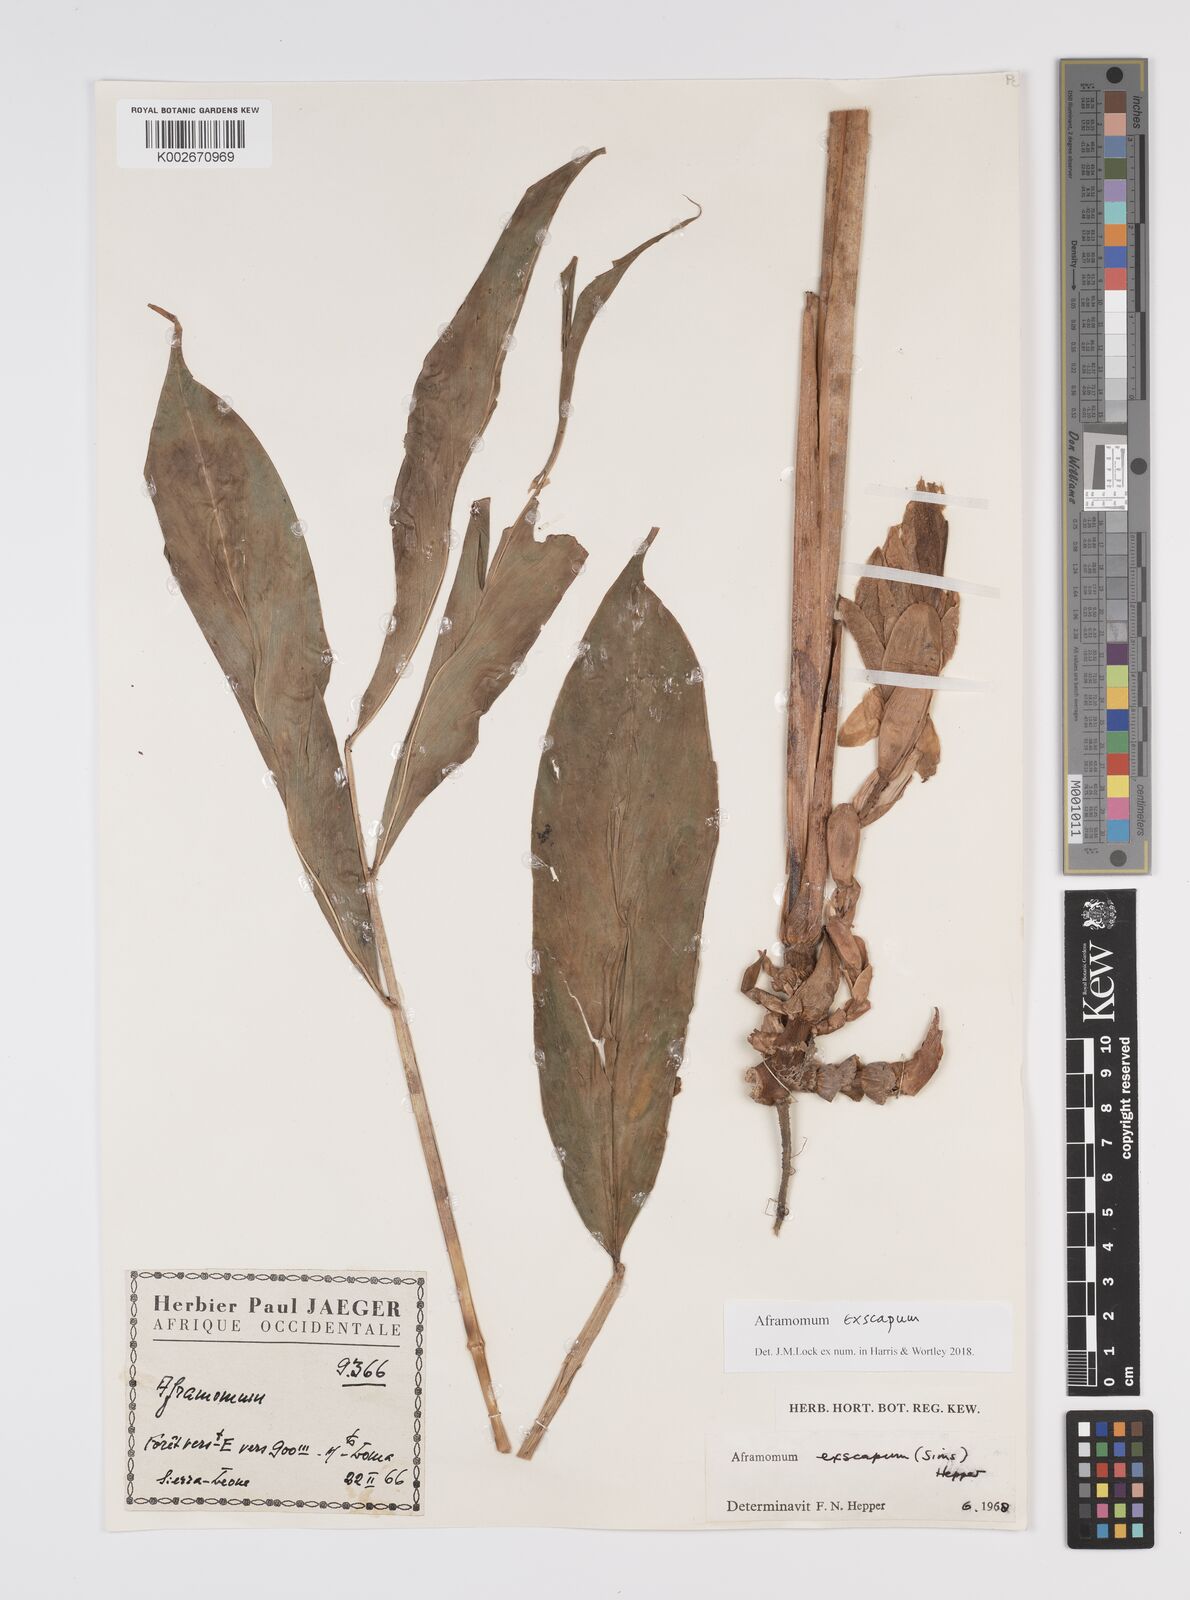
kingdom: Plantae
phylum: Tracheophyta
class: Liliopsida
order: Zingiberales
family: Zingiberaceae
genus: Aframomum
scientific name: Aframomum exscapum
